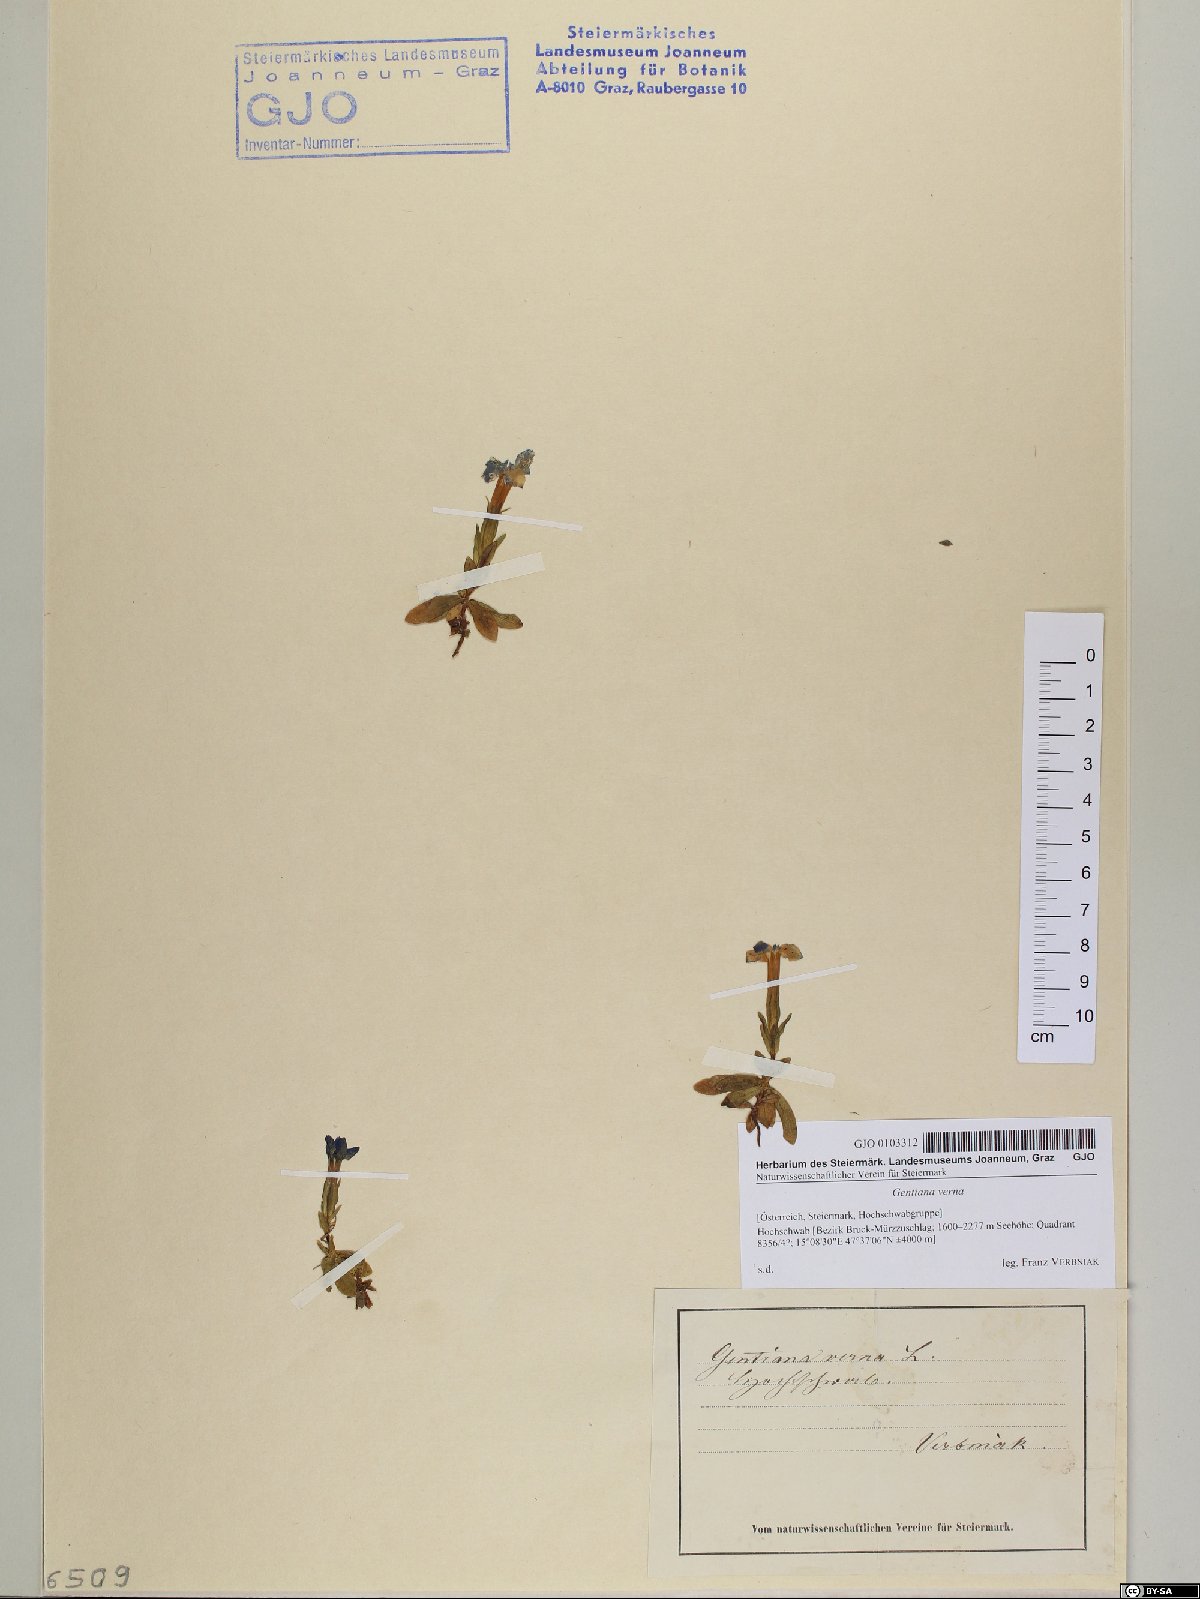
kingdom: Plantae
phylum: Tracheophyta
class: Magnoliopsida
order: Gentianales
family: Gentianaceae
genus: Gentiana
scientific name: Gentiana verna
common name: Spring gentian
